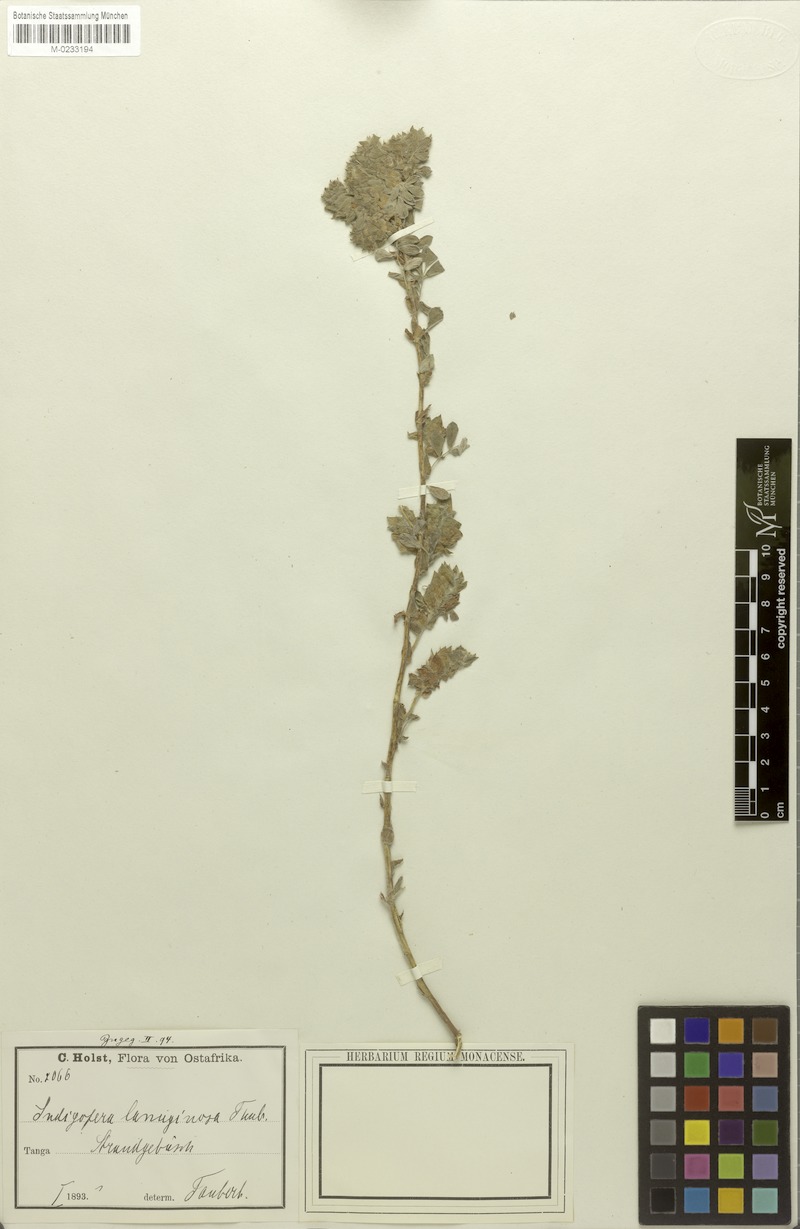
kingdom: Plantae
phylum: Tracheophyta
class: Magnoliopsida
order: Fabales
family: Fabaceae
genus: Indigofera
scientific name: Indigofera strobilifera
